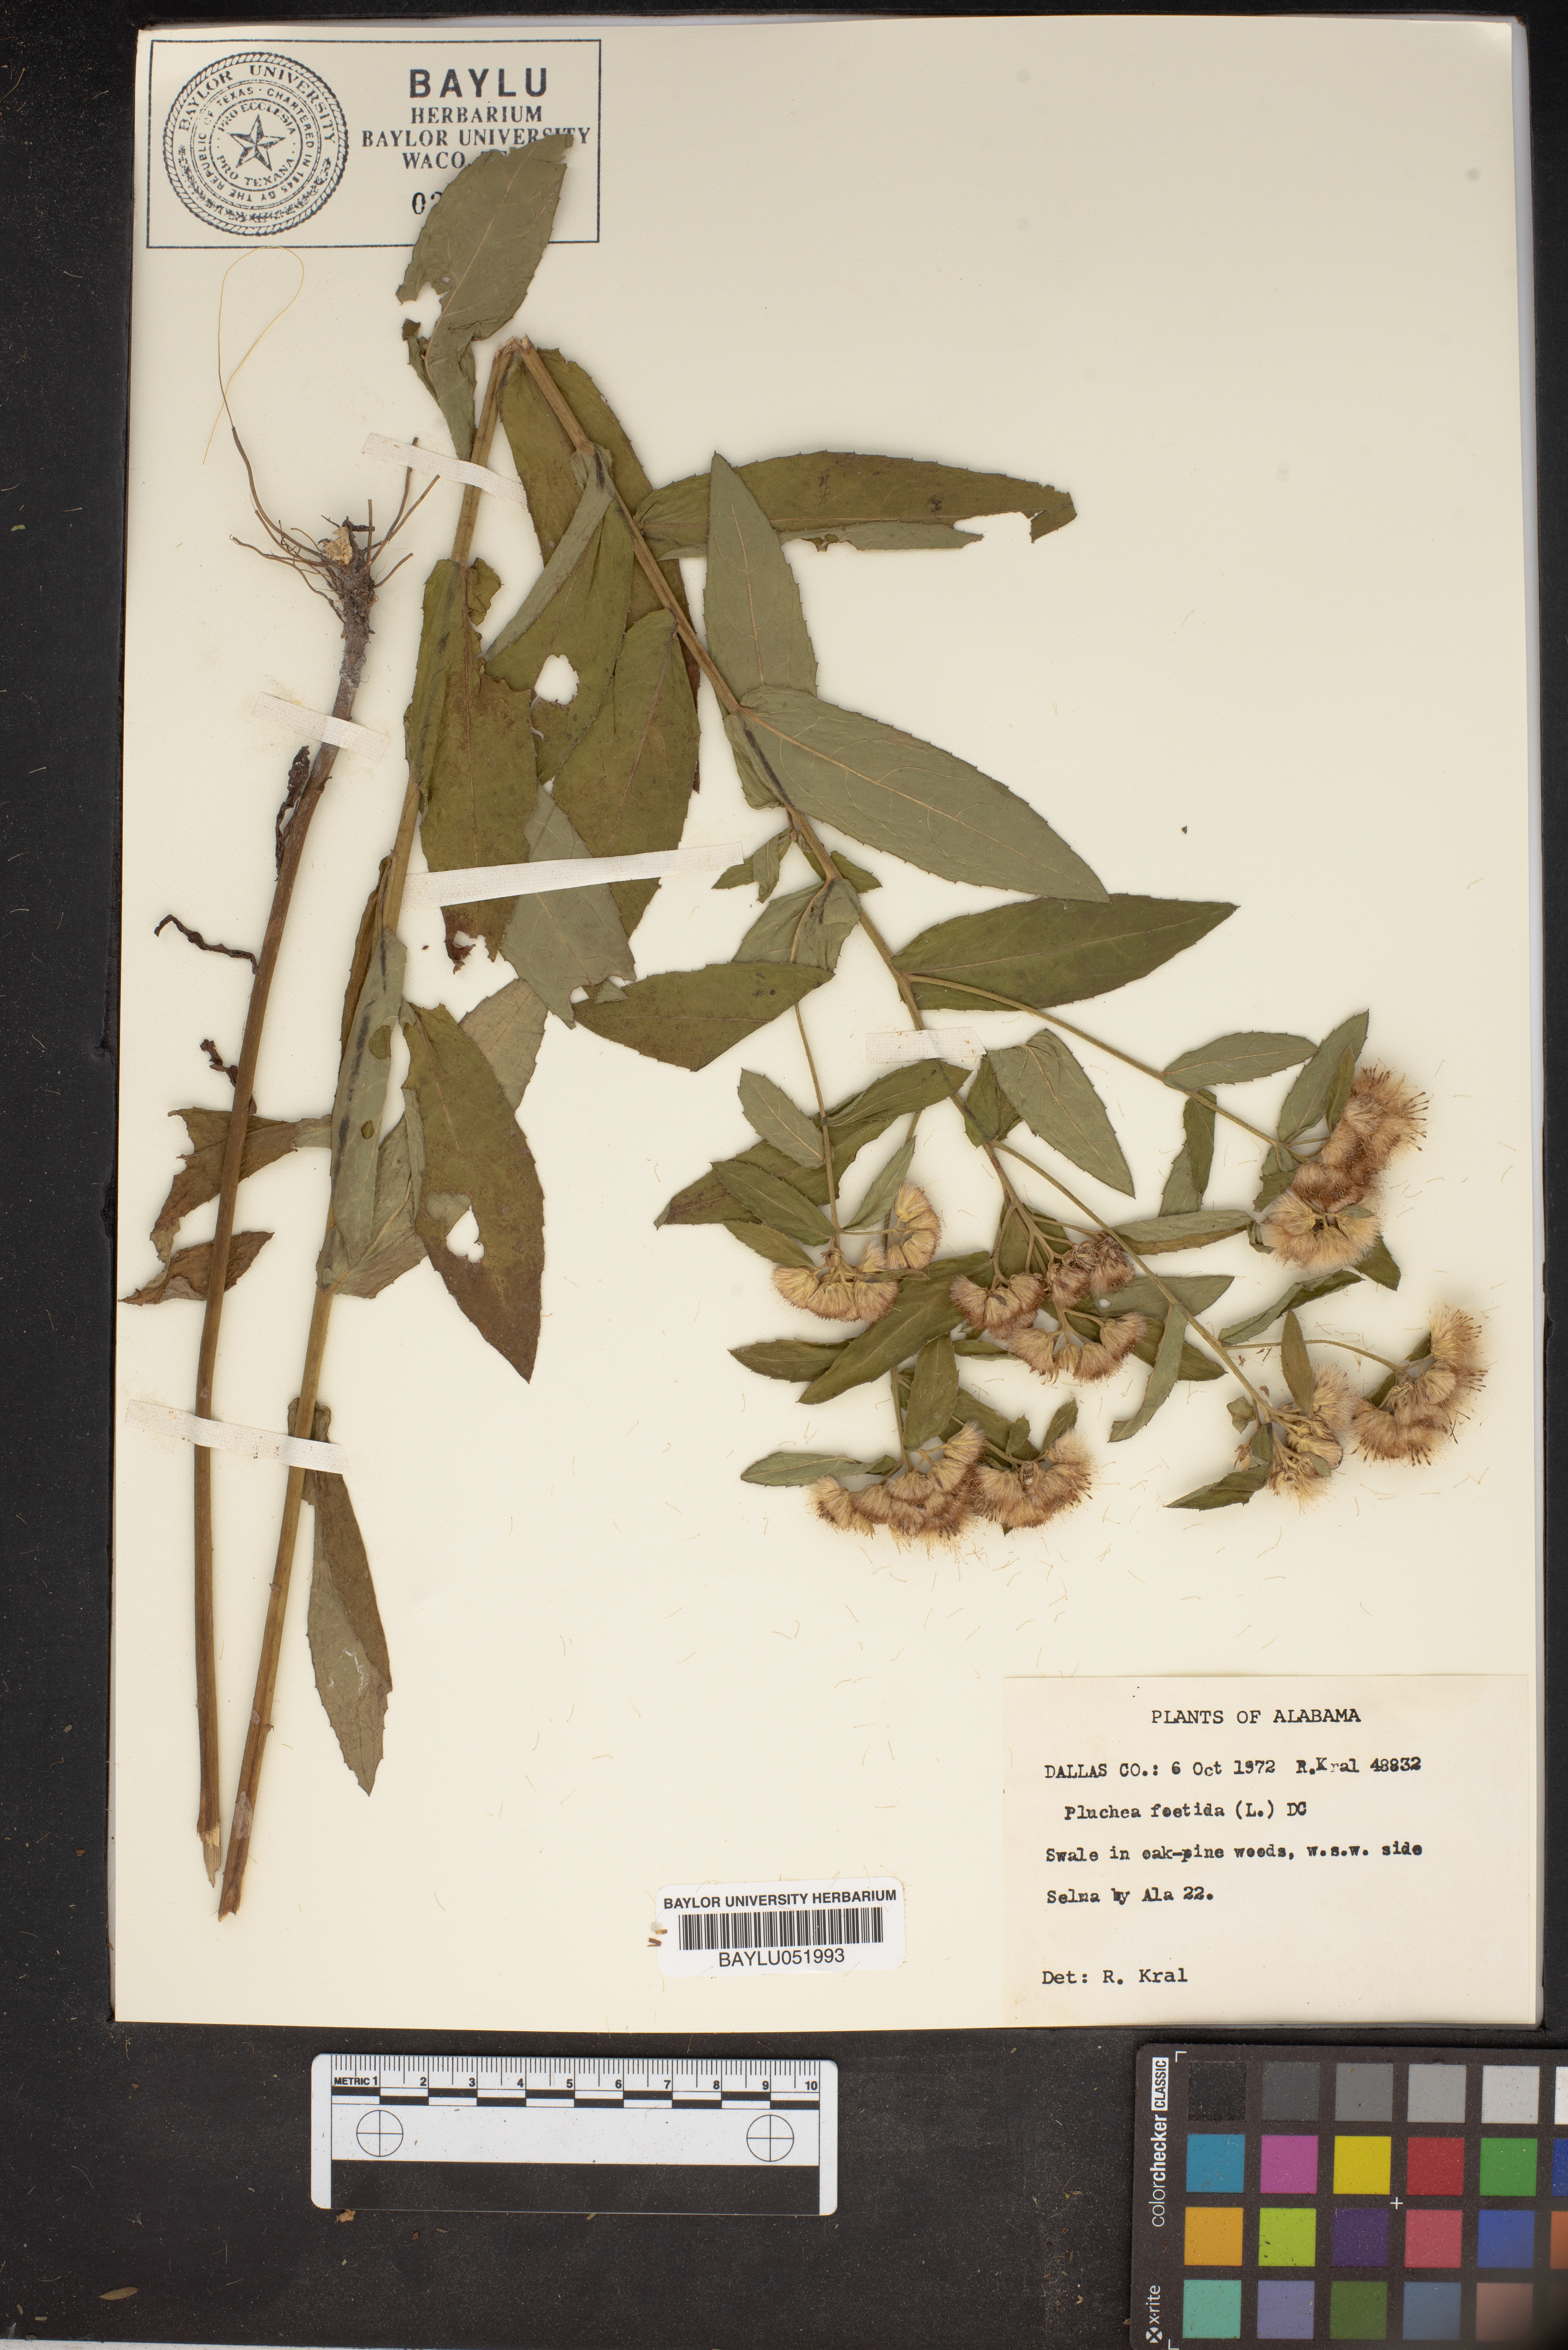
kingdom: Plantae
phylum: Tracheophyta
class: Magnoliopsida
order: Asterales
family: Asteraceae
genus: Pluchea
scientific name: Pluchea foetida
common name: Stinking camphorweed
